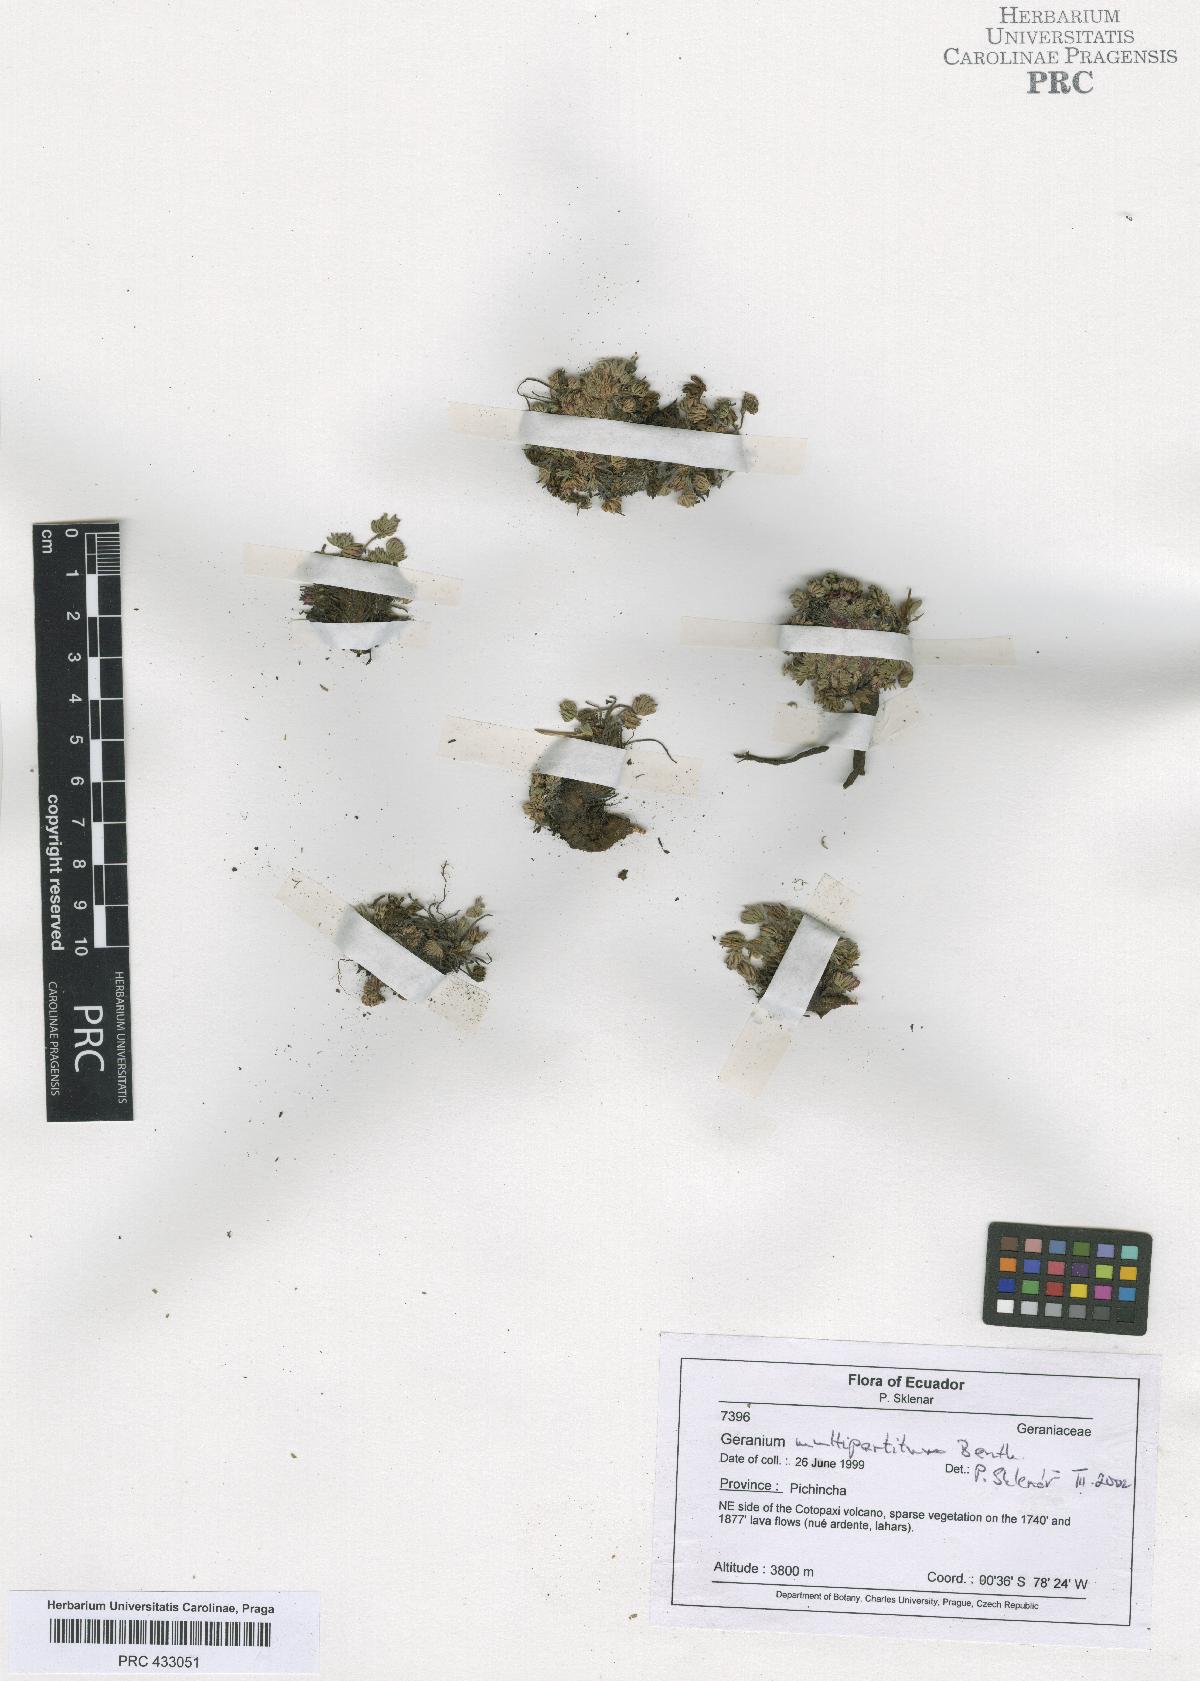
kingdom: Plantae
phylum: Tracheophyta
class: Magnoliopsida
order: Geraniales
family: Geraniaceae
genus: Geranium
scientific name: Geranium multipartitum
